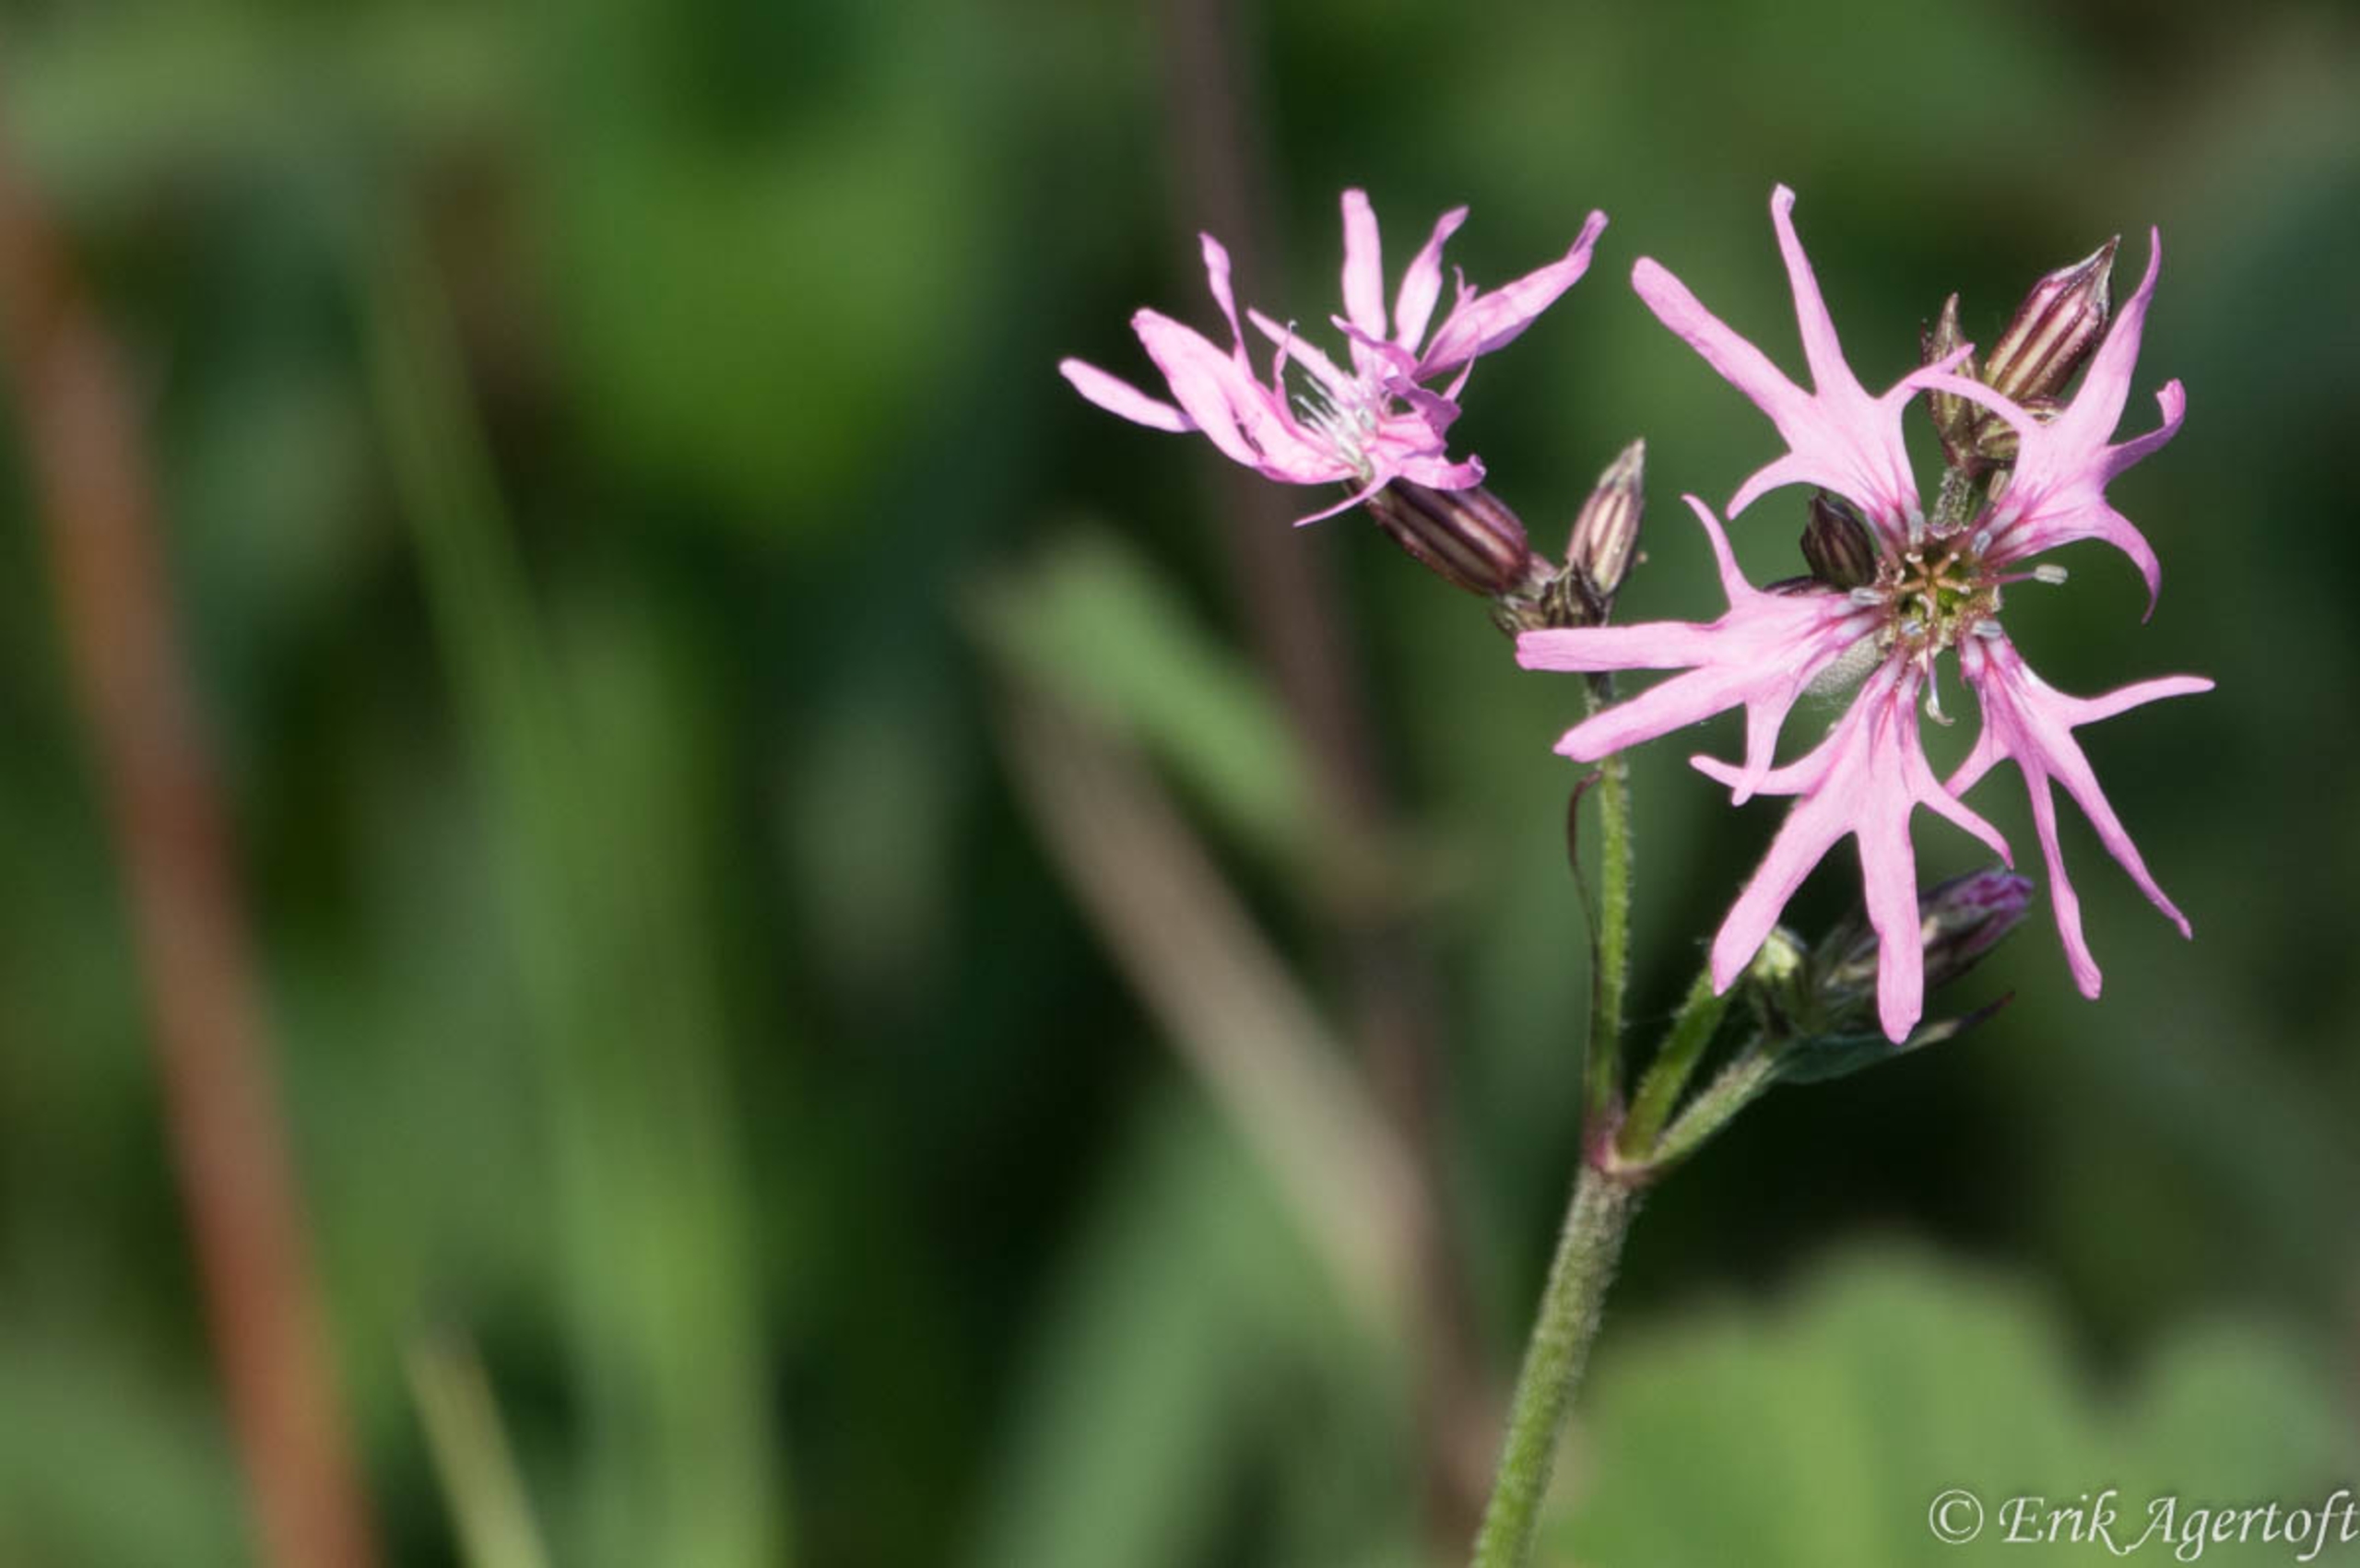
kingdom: Plantae
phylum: Tracheophyta
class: Magnoliopsida
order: Caryophyllales
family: Caryophyllaceae
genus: Silene
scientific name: Silene flos-cuculi
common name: Trævlekrone
